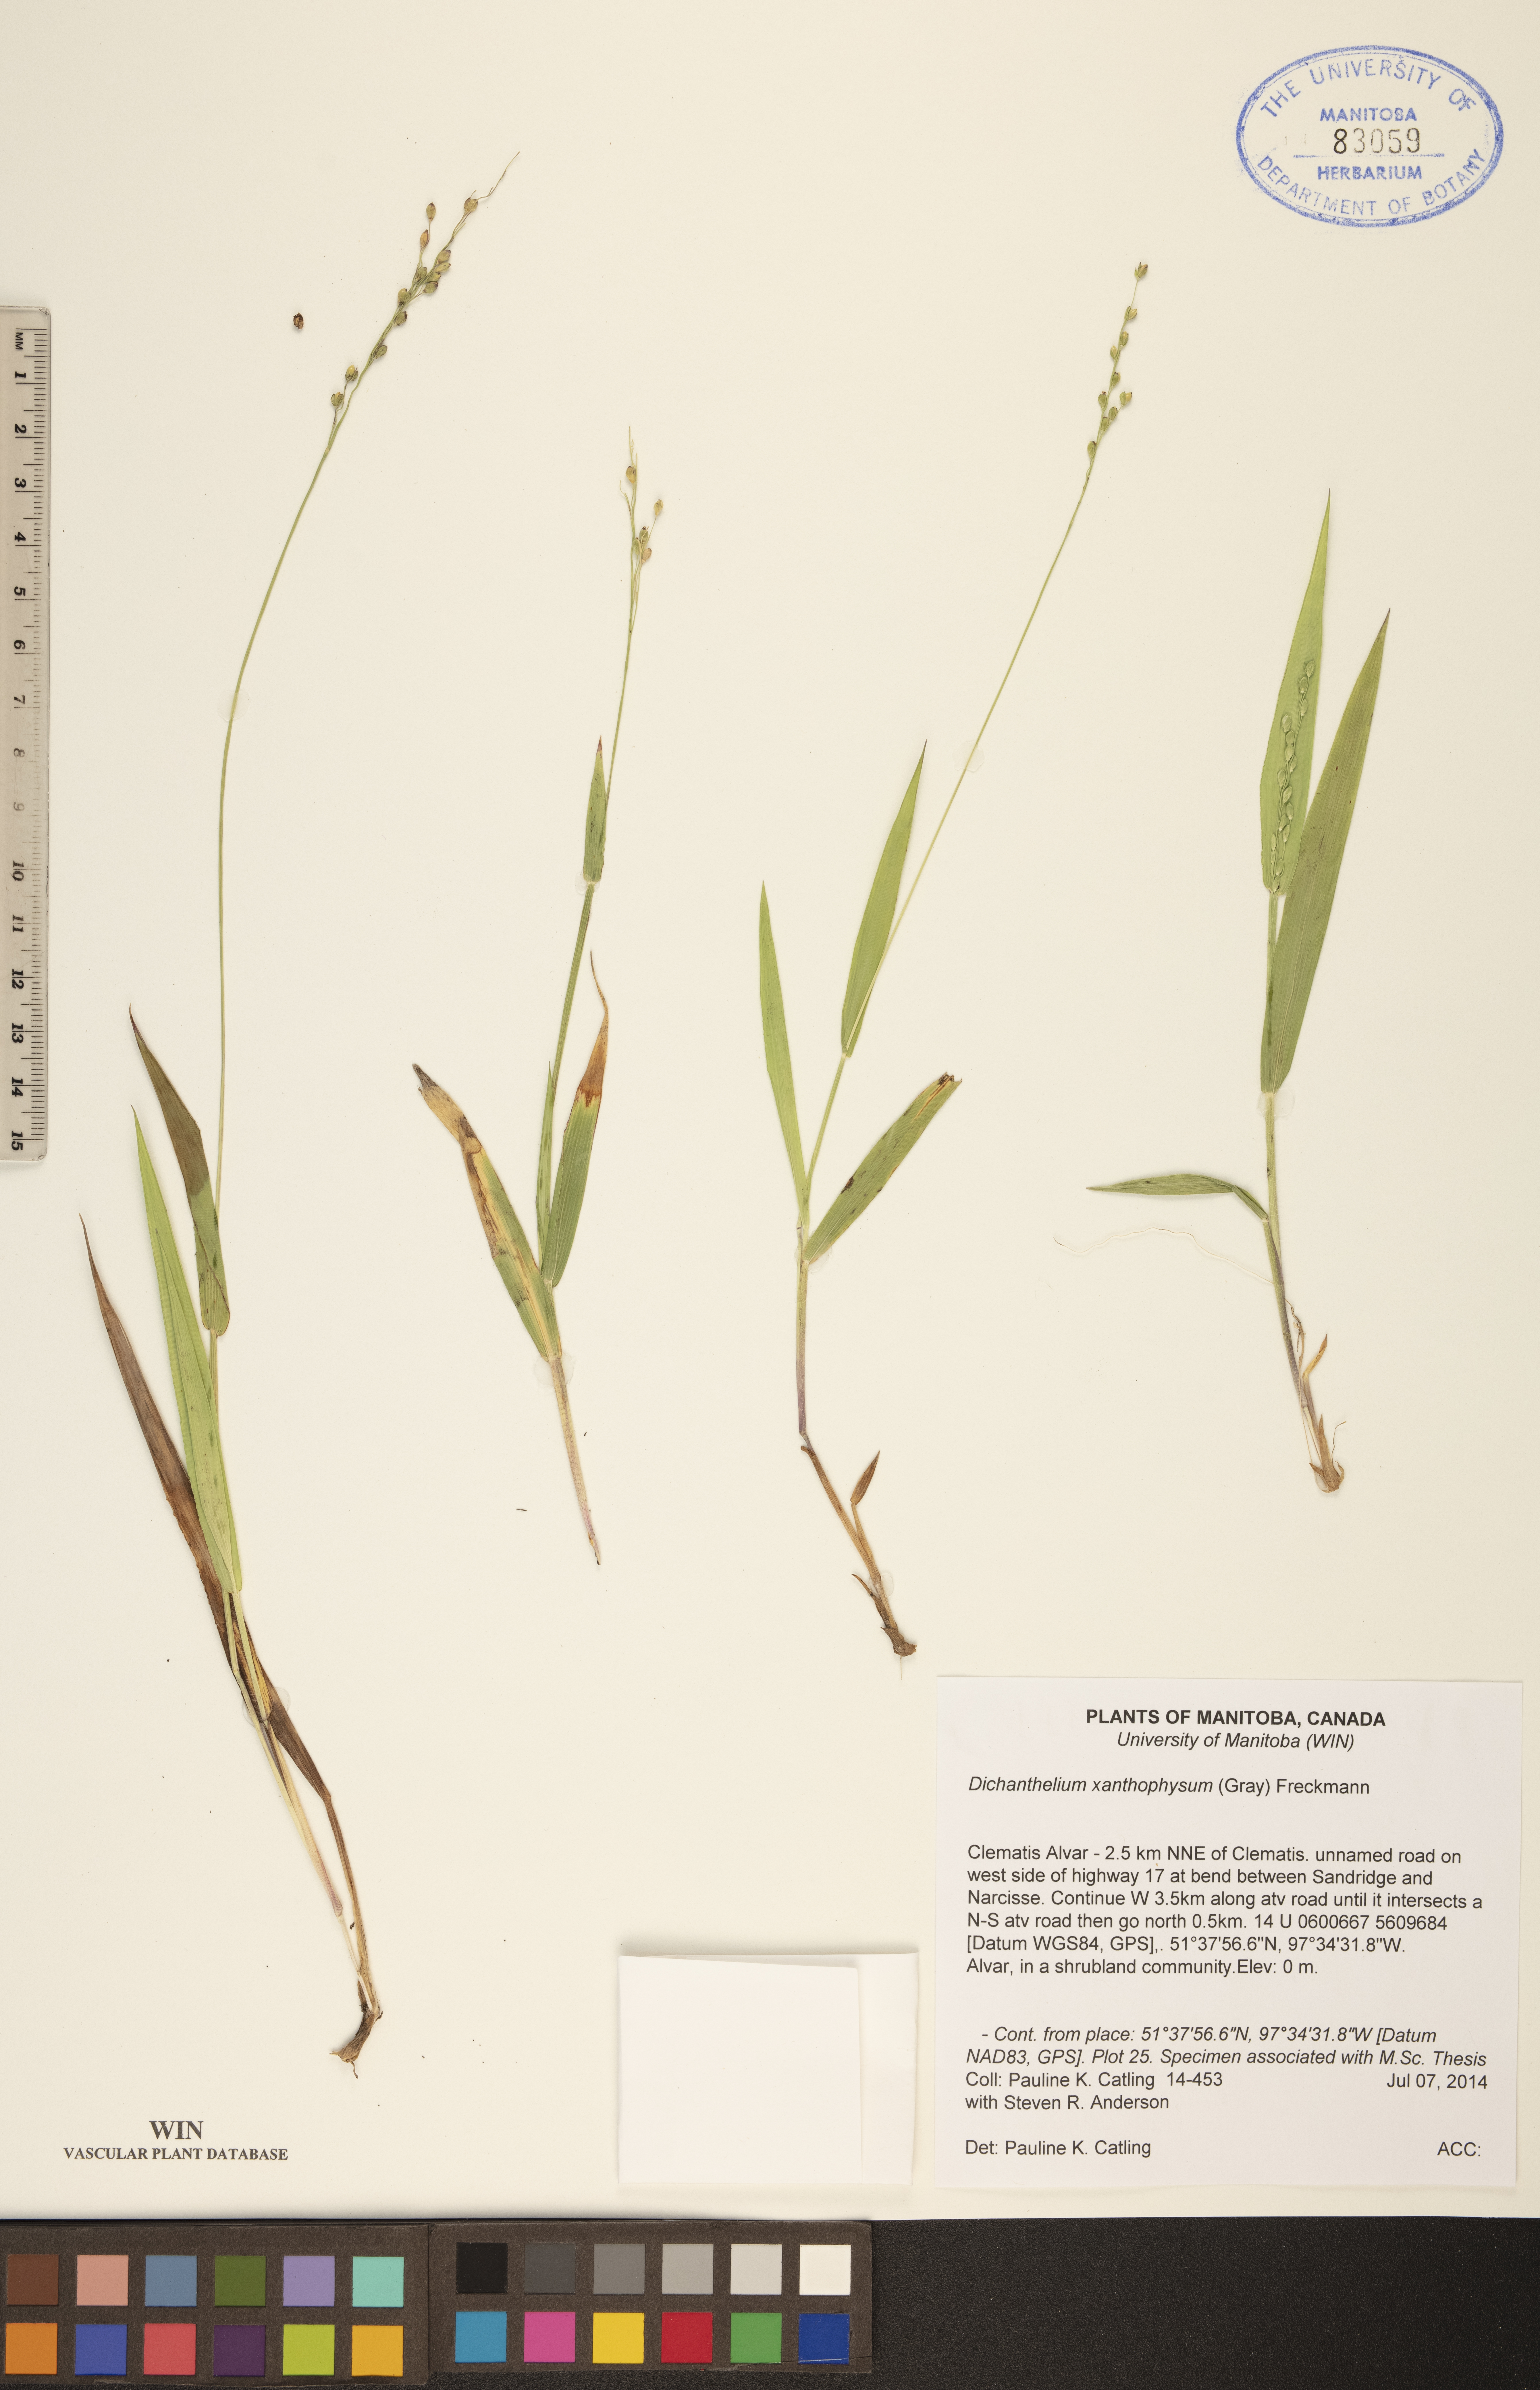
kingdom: Plantae
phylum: Tracheophyta
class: Liliopsida
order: Poales
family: Poaceae
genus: Dichanthelium
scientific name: Dichanthelium xanthophysum
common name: Pale panicgrass
